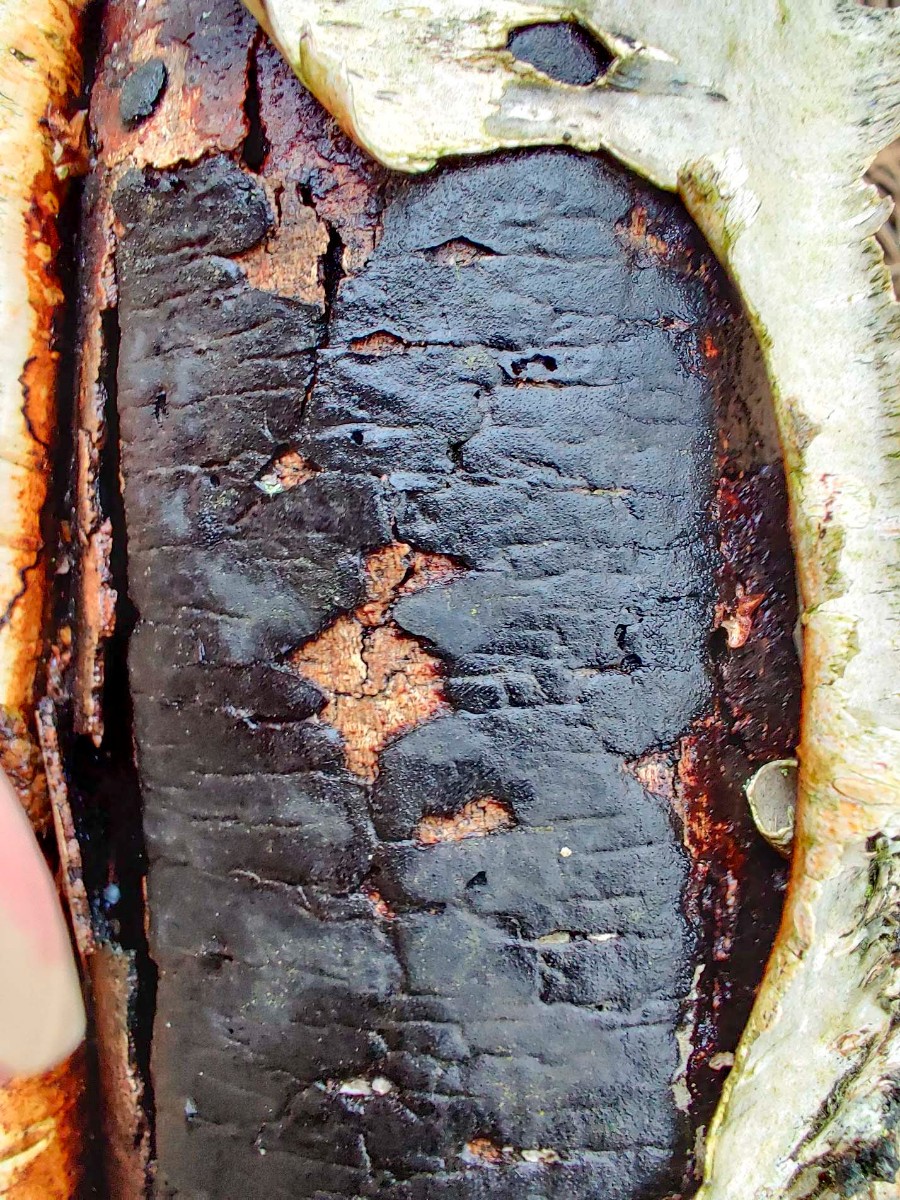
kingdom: Fungi
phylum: Ascomycota
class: Sordariomycetes
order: Xylariales
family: Diatrypaceae
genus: Diatrype
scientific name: Diatrype
